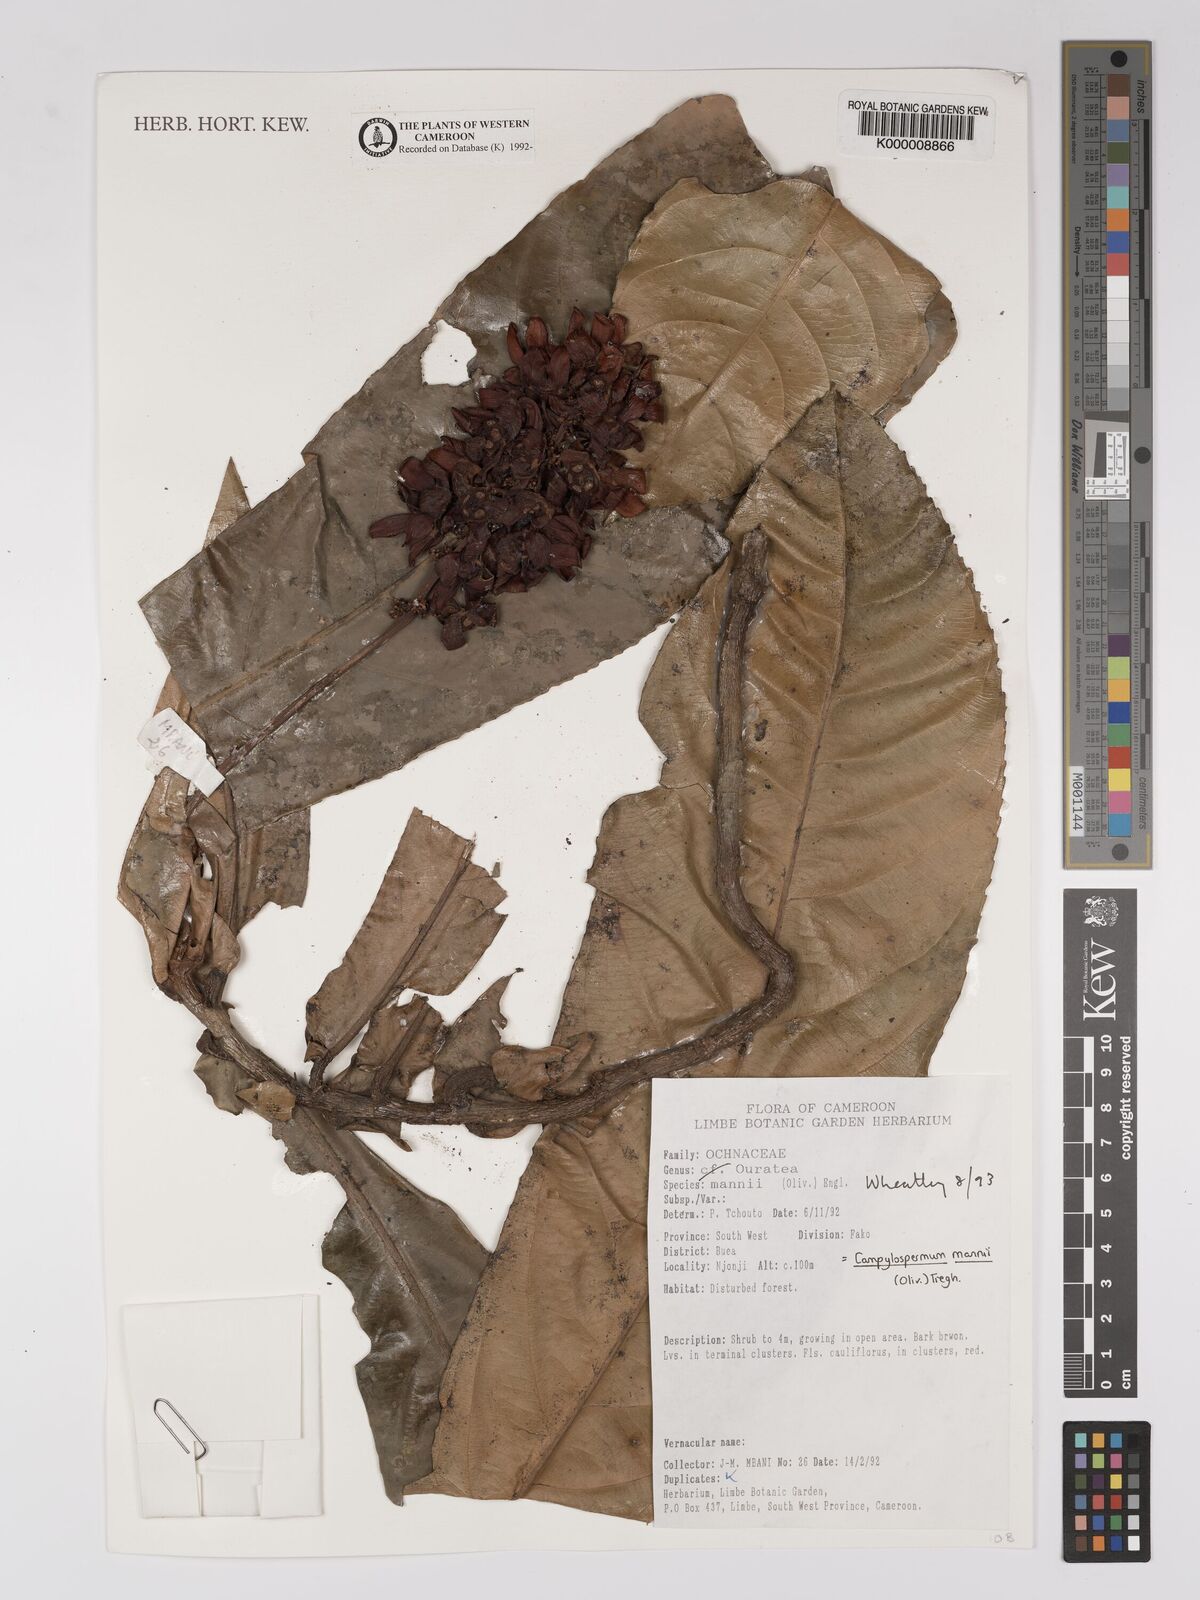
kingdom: Plantae
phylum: Tracheophyta
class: Magnoliopsida
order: Malpighiales
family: Ochnaceae
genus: Campylospermum
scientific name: Campylospermum mannii
